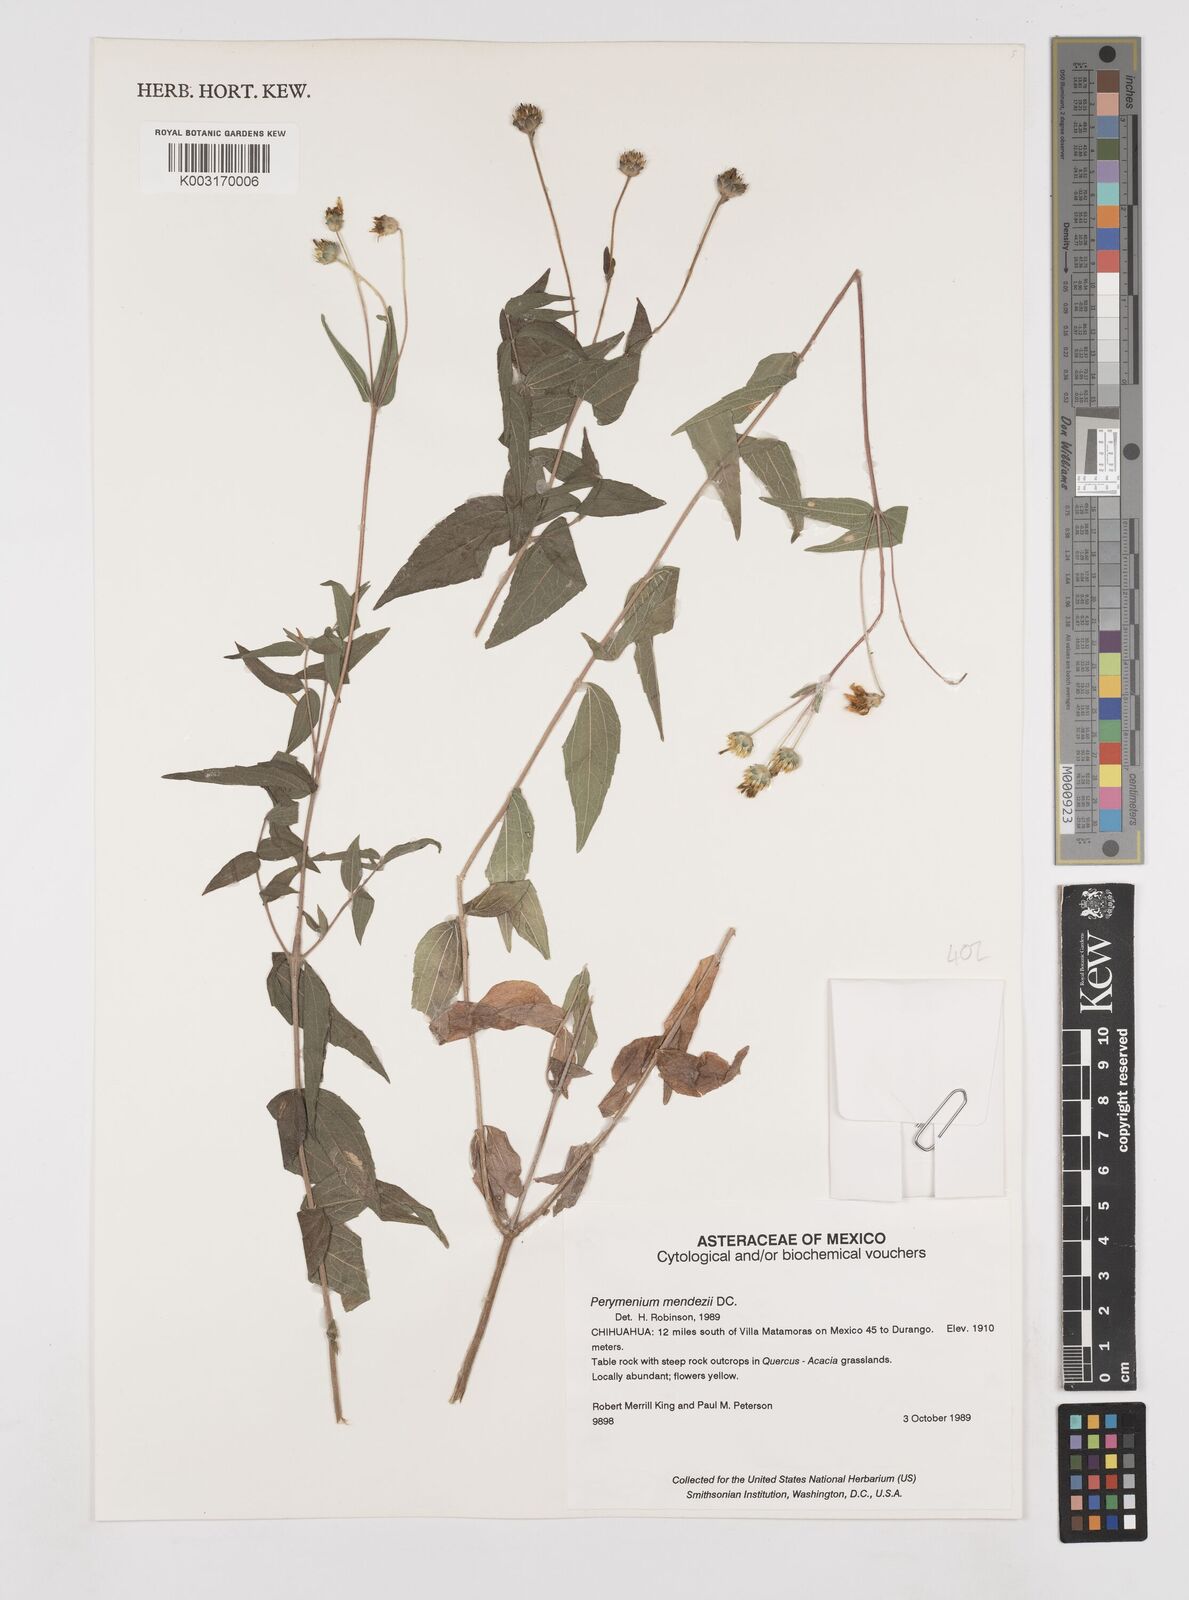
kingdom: Plantae
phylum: Tracheophyta
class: Magnoliopsida
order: Asterales
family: Asteraceae
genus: Perymenium
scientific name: Perymenium mendezii
